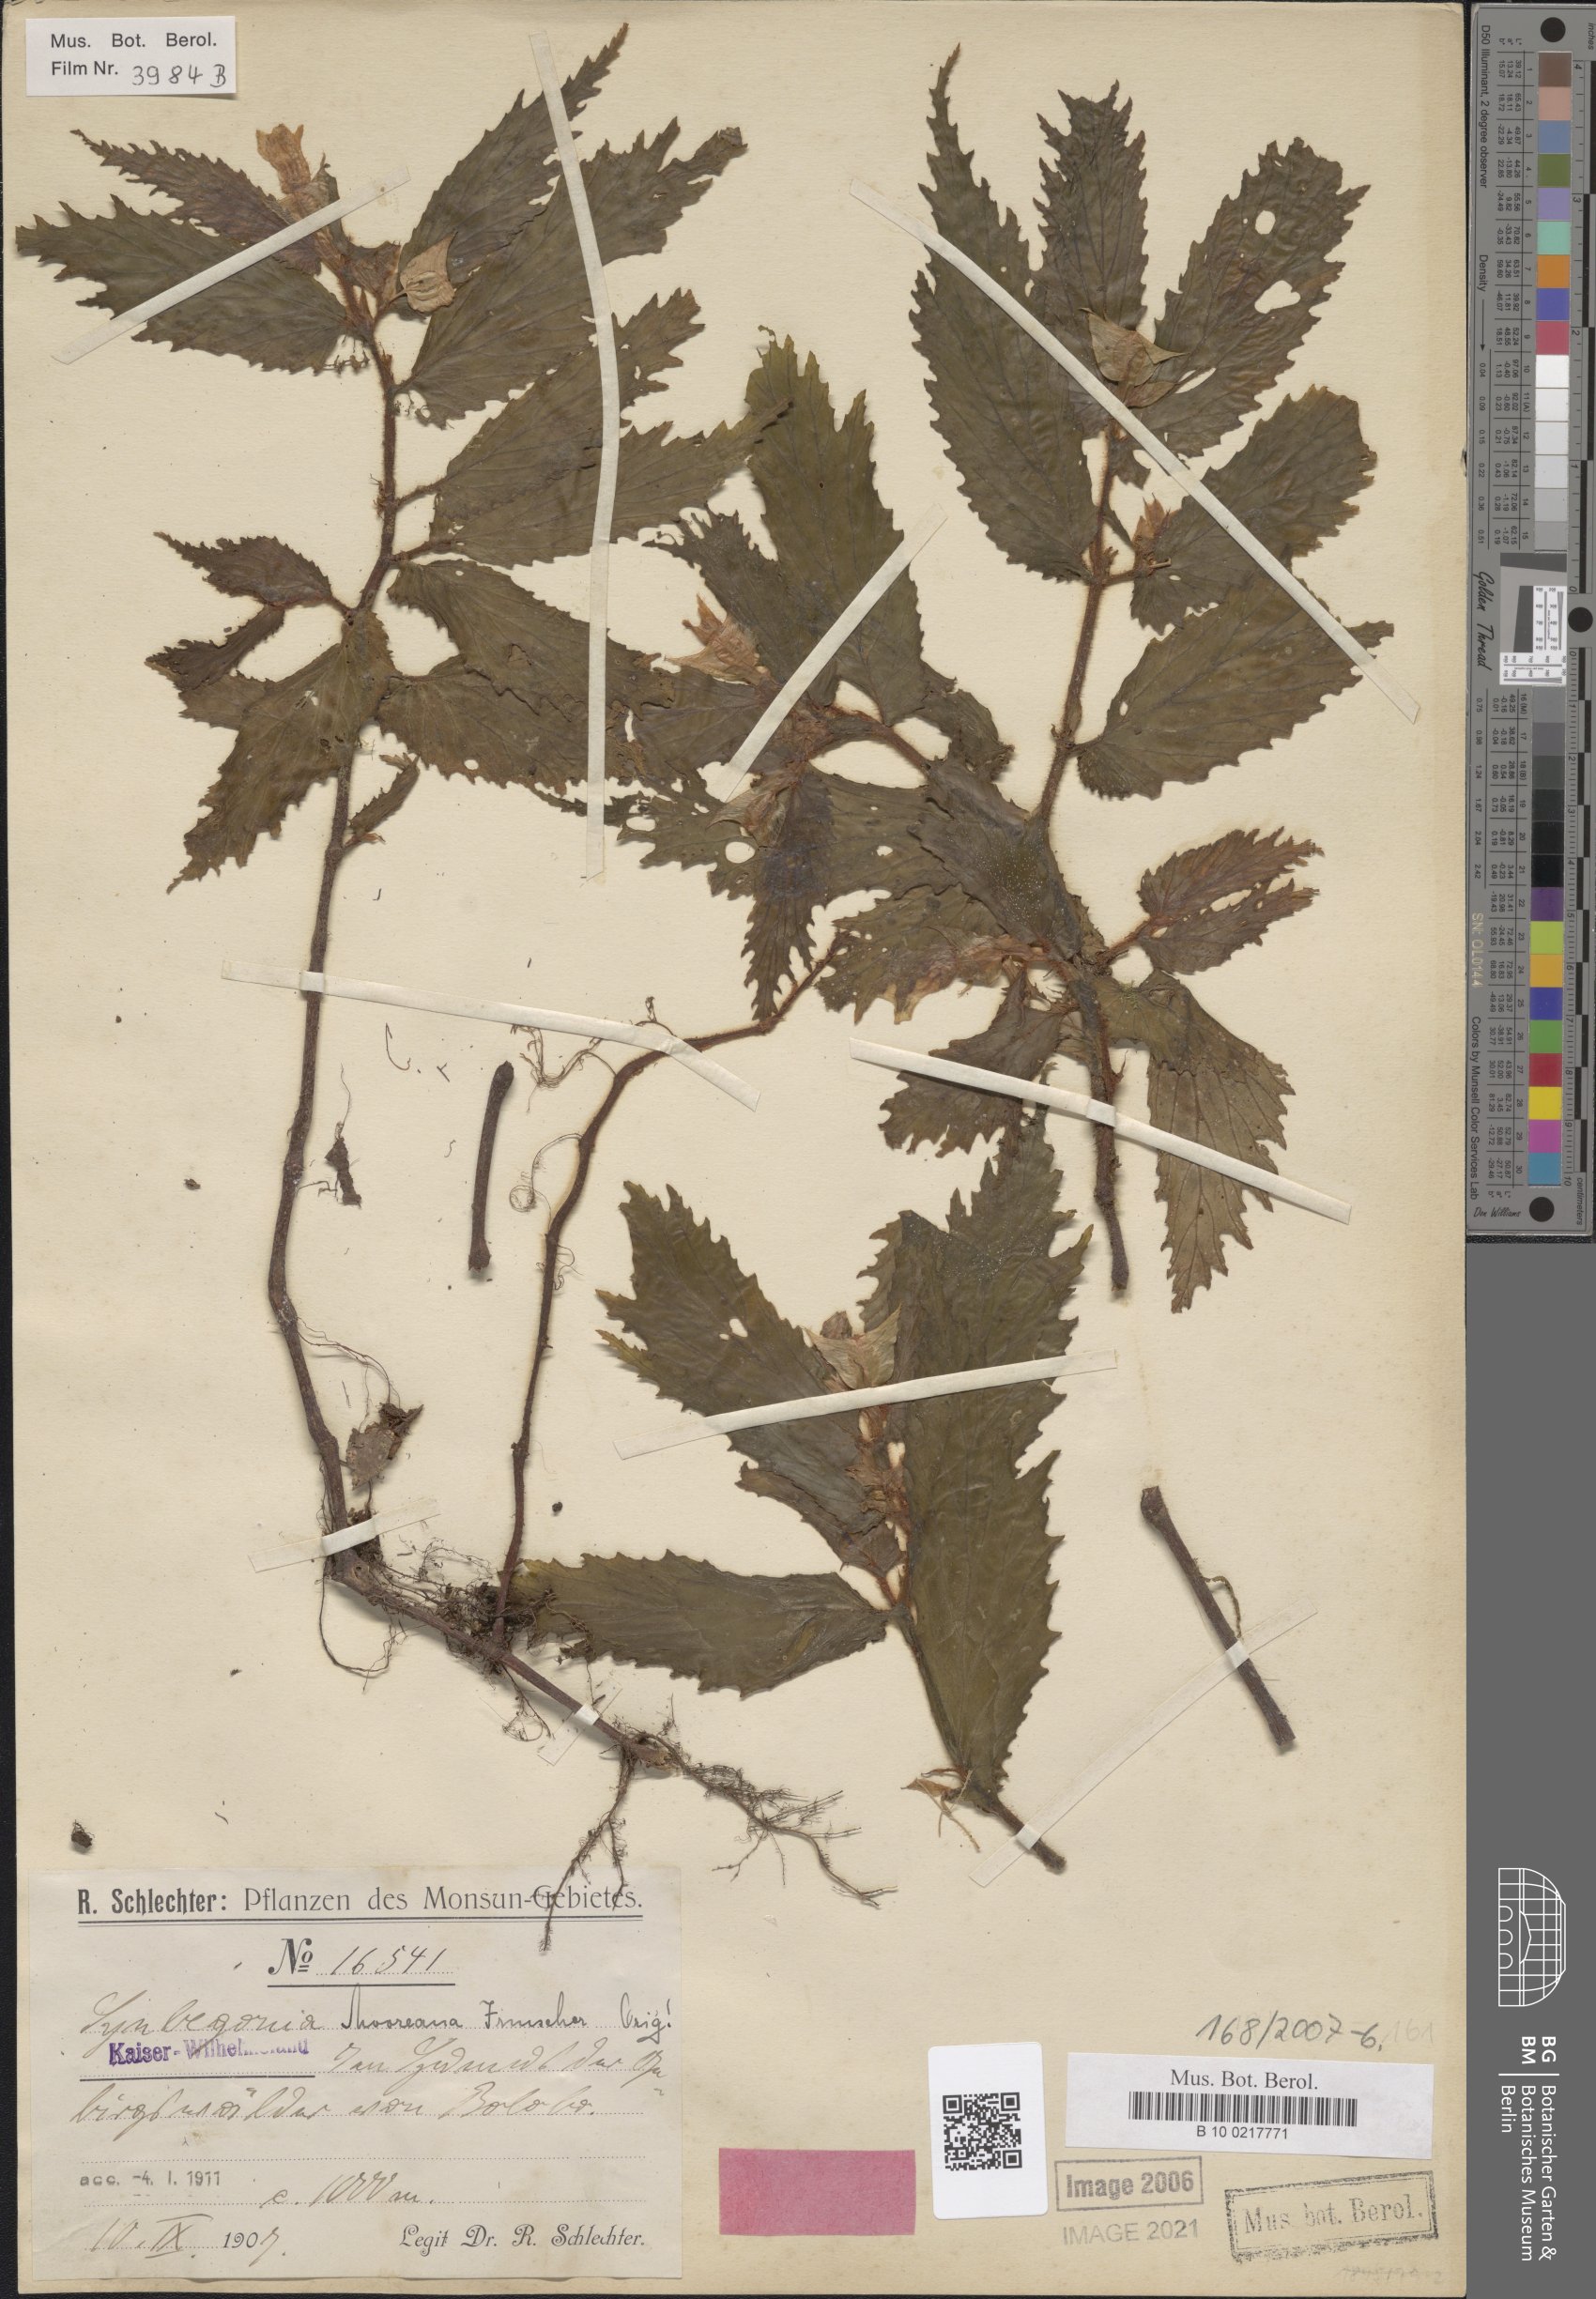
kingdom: Plantae
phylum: Tracheophyta
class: Magnoliopsida
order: Cucurbitales
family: Begoniaceae
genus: Begonia
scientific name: Begonia mooreana
